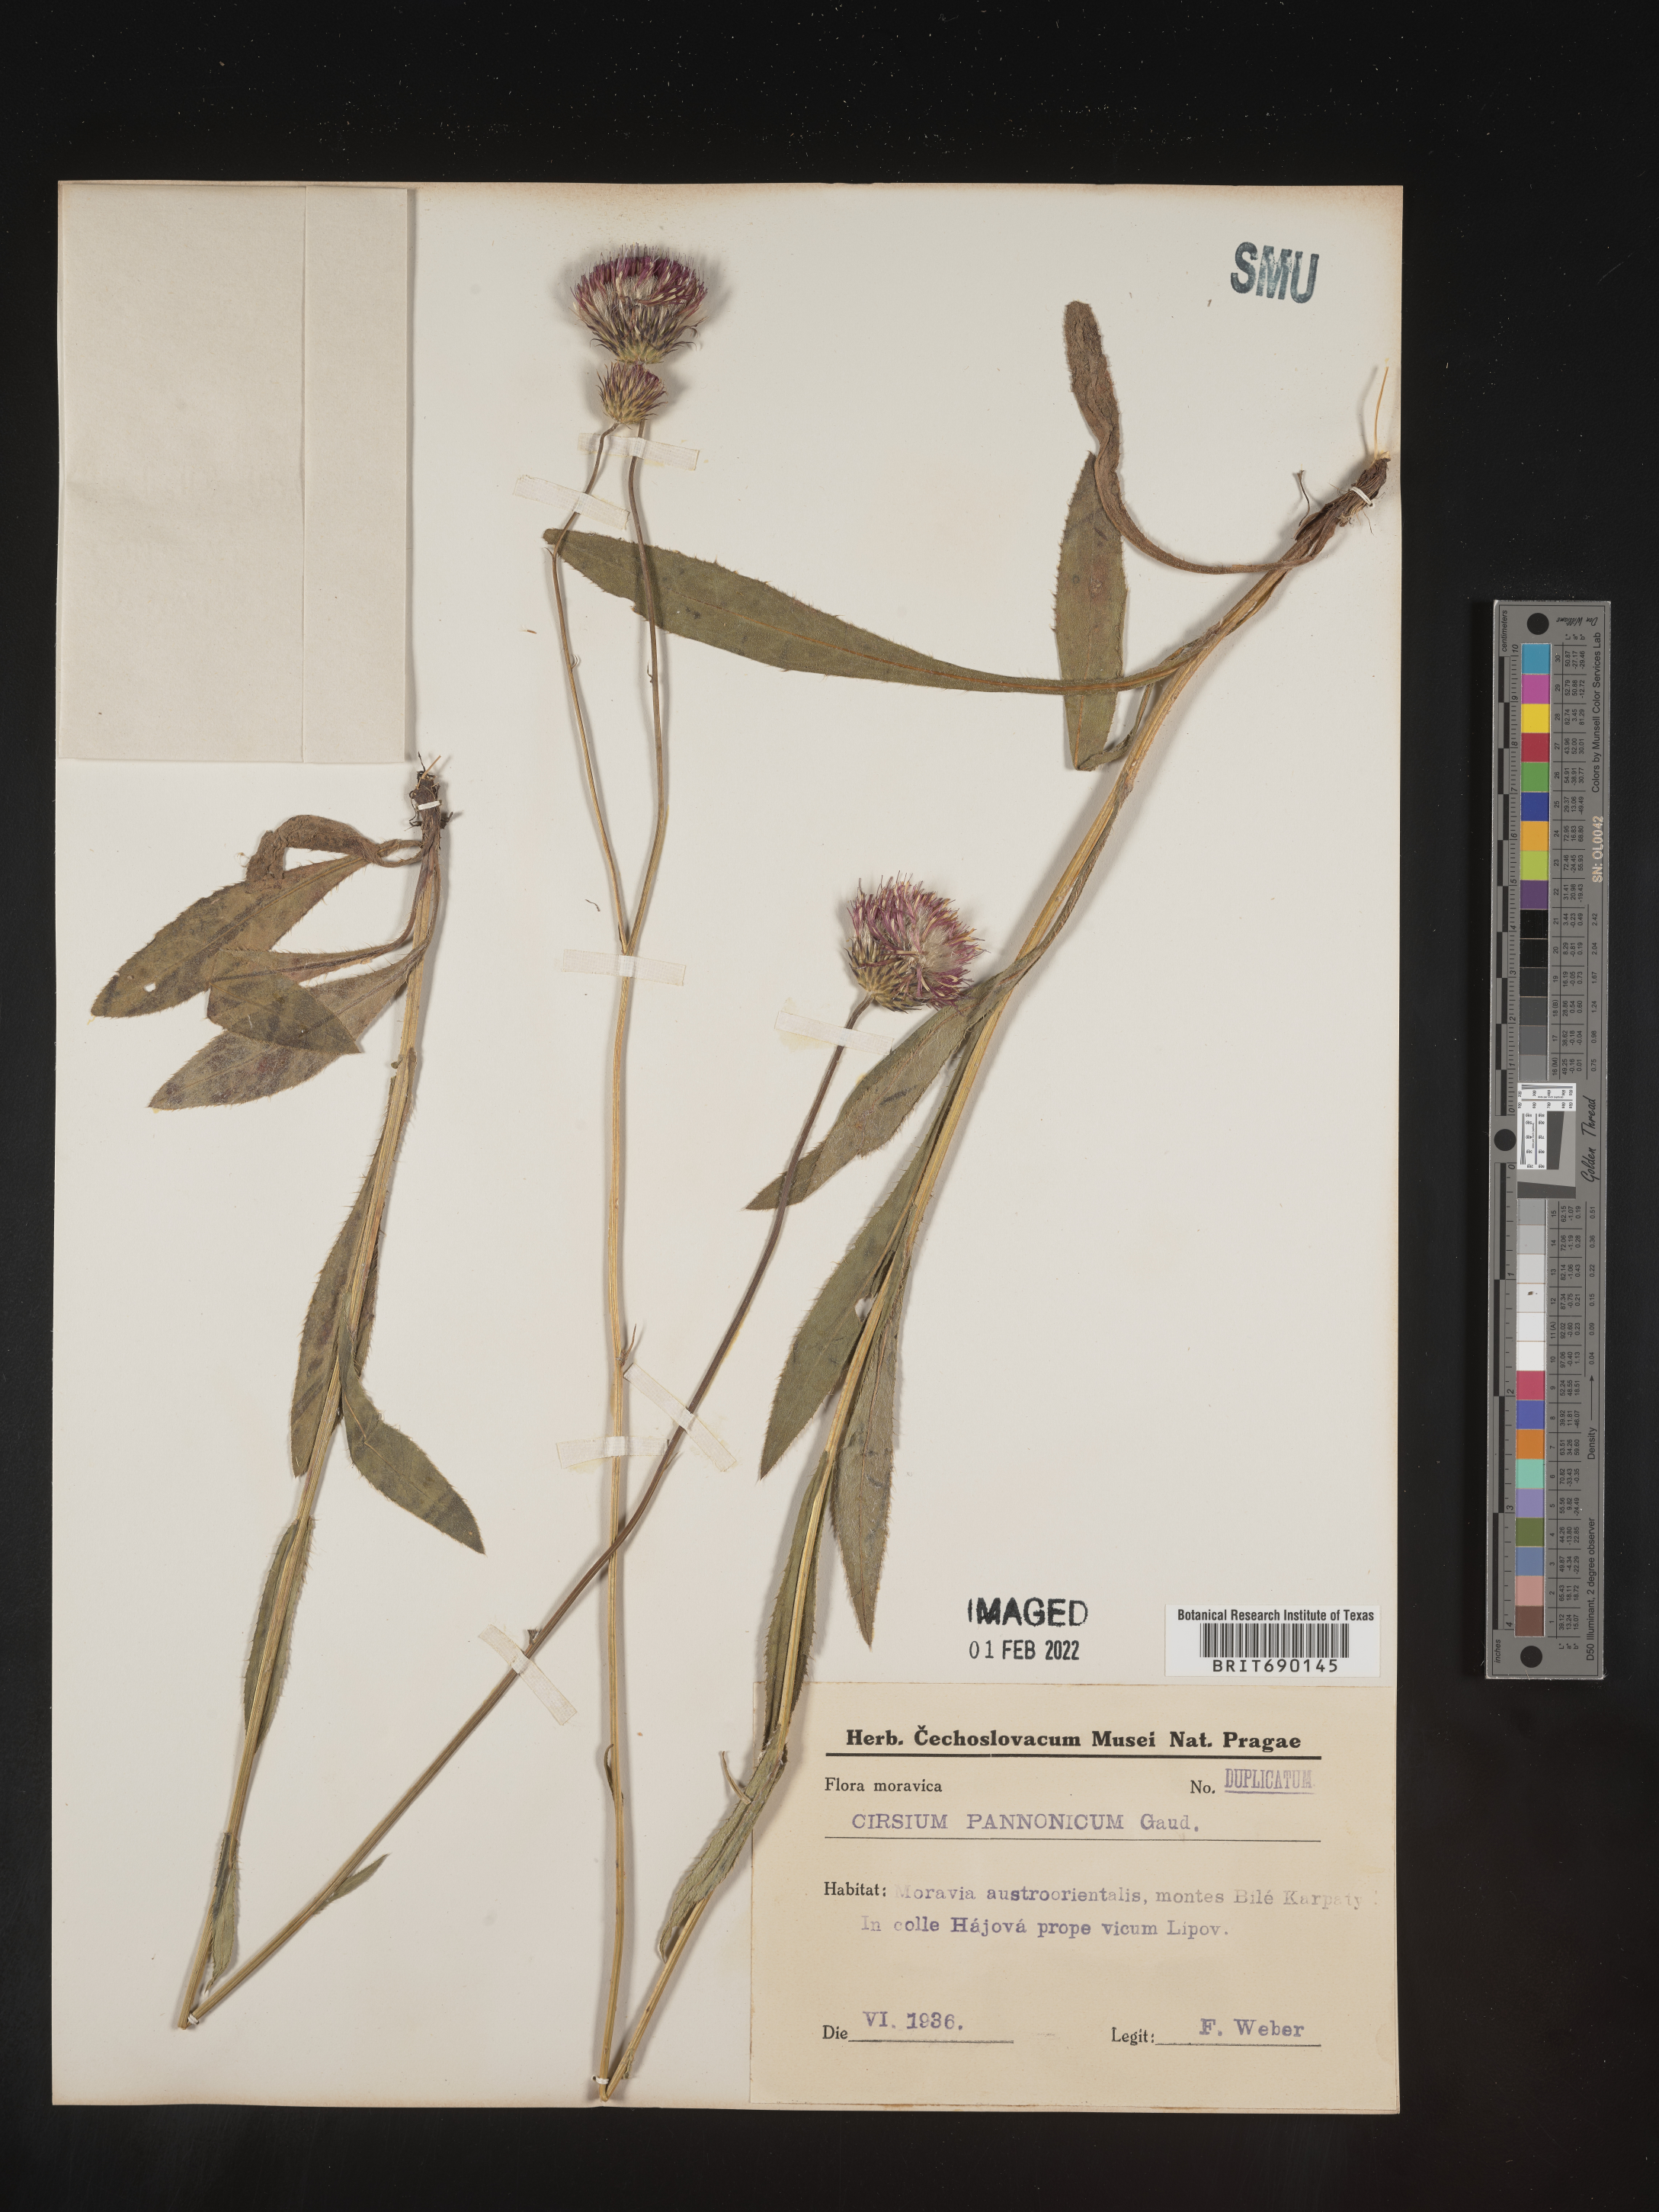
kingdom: Plantae
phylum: Tracheophyta
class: Magnoliopsida
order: Asterales
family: Asteraceae
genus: Cirsium
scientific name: Cirsium
